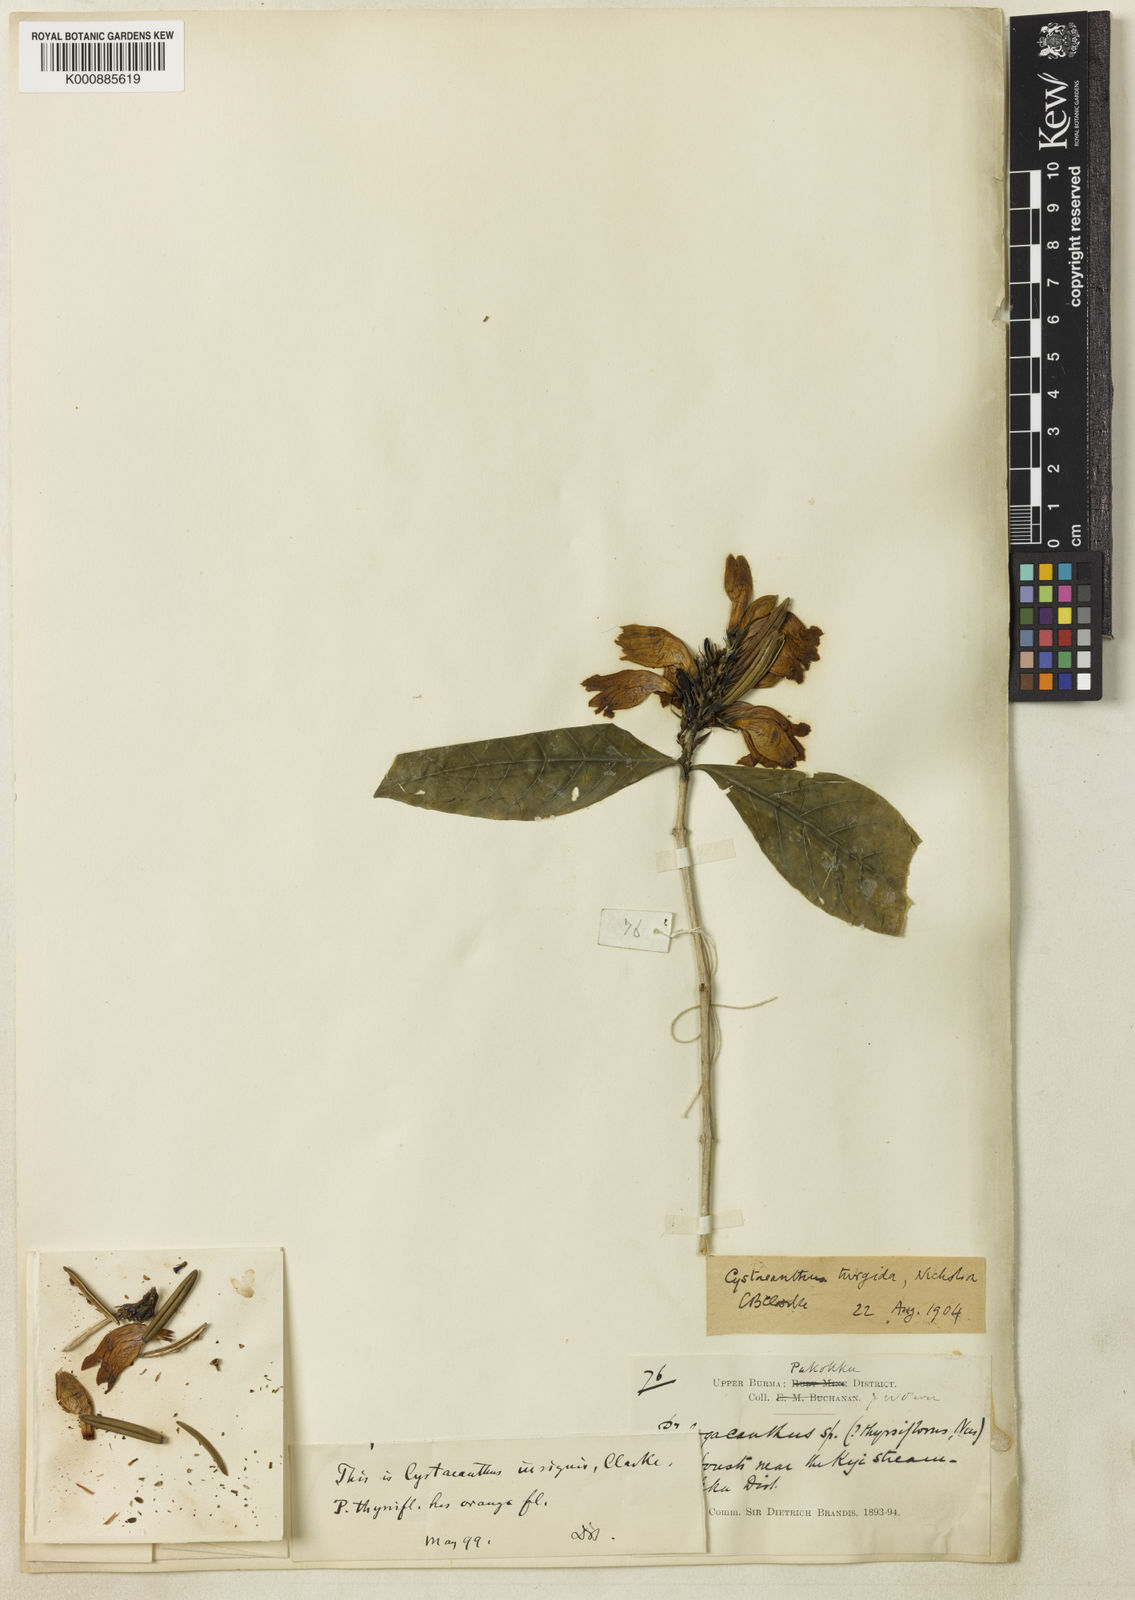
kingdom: Plantae
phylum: Tracheophyta
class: Magnoliopsida
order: Lamiales
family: Acanthaceae
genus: Phlogacanthus
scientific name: Phlogacanthus insignis
